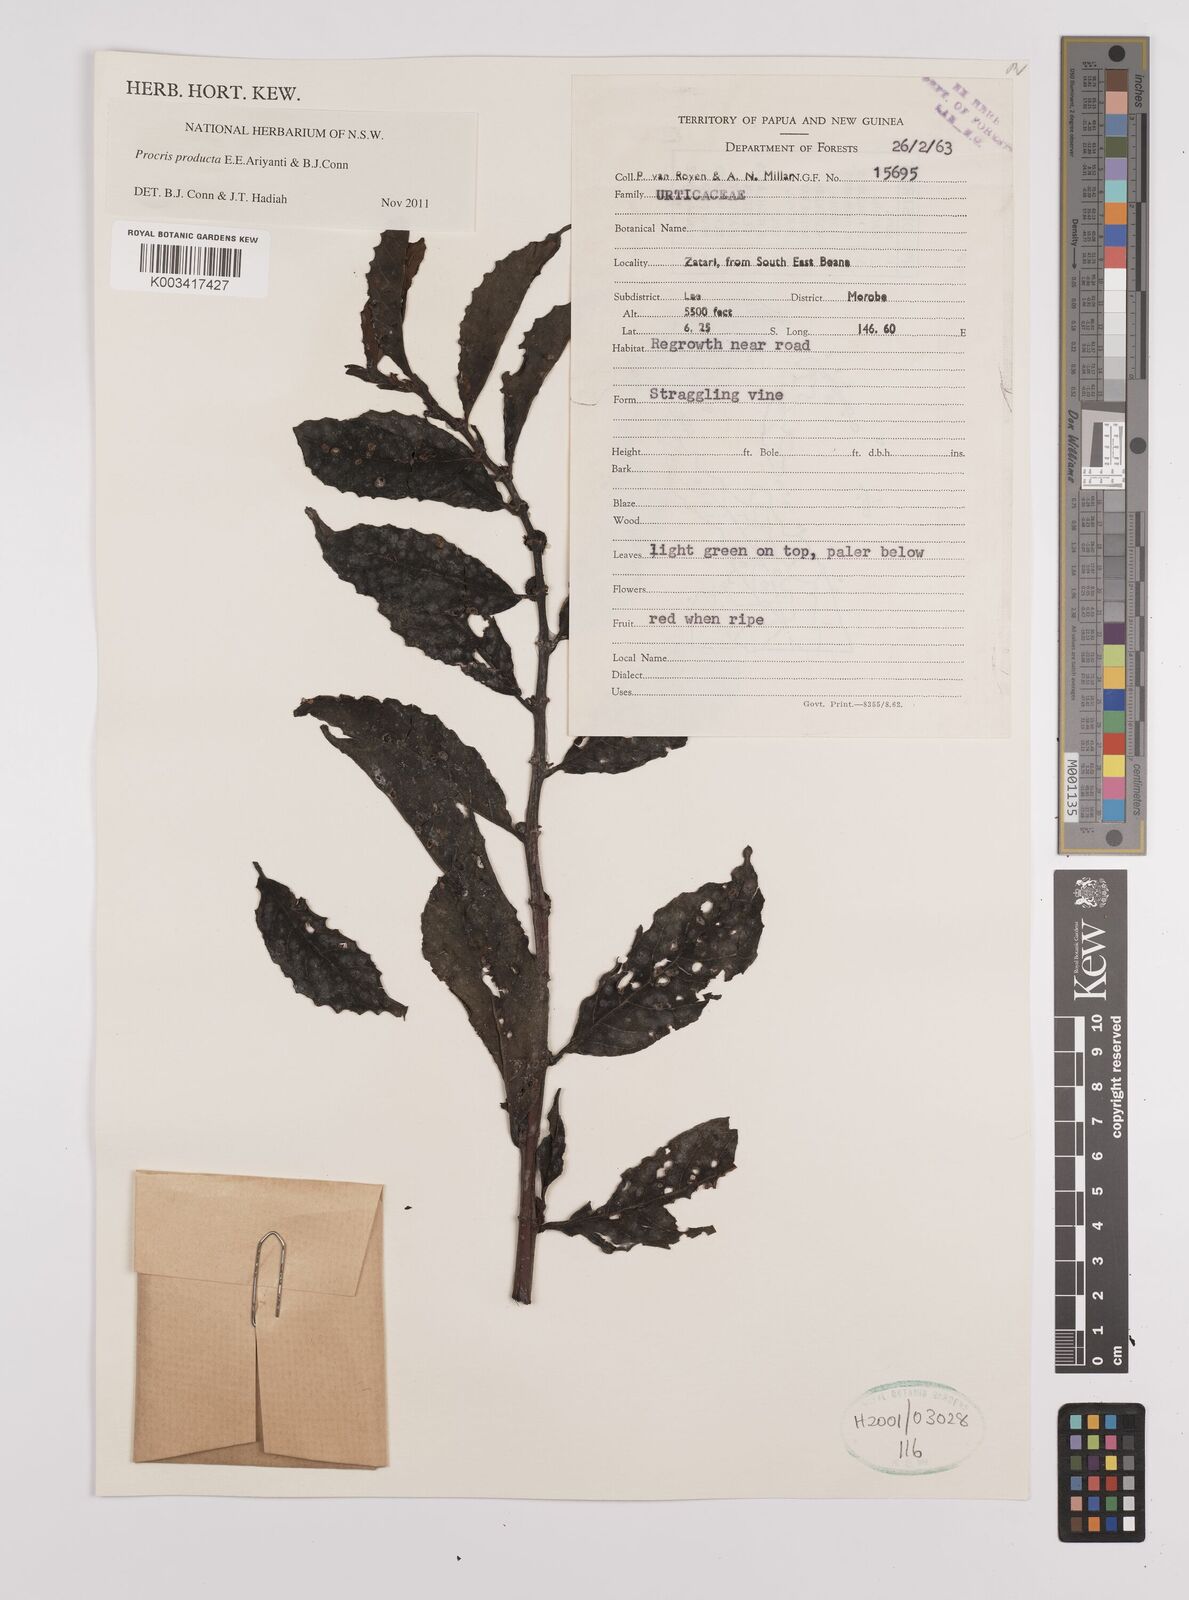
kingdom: Plantae
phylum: Tracheophyta
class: Magnoliopsida
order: Rosales
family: Urticaceae
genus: Procris
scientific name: Procris
